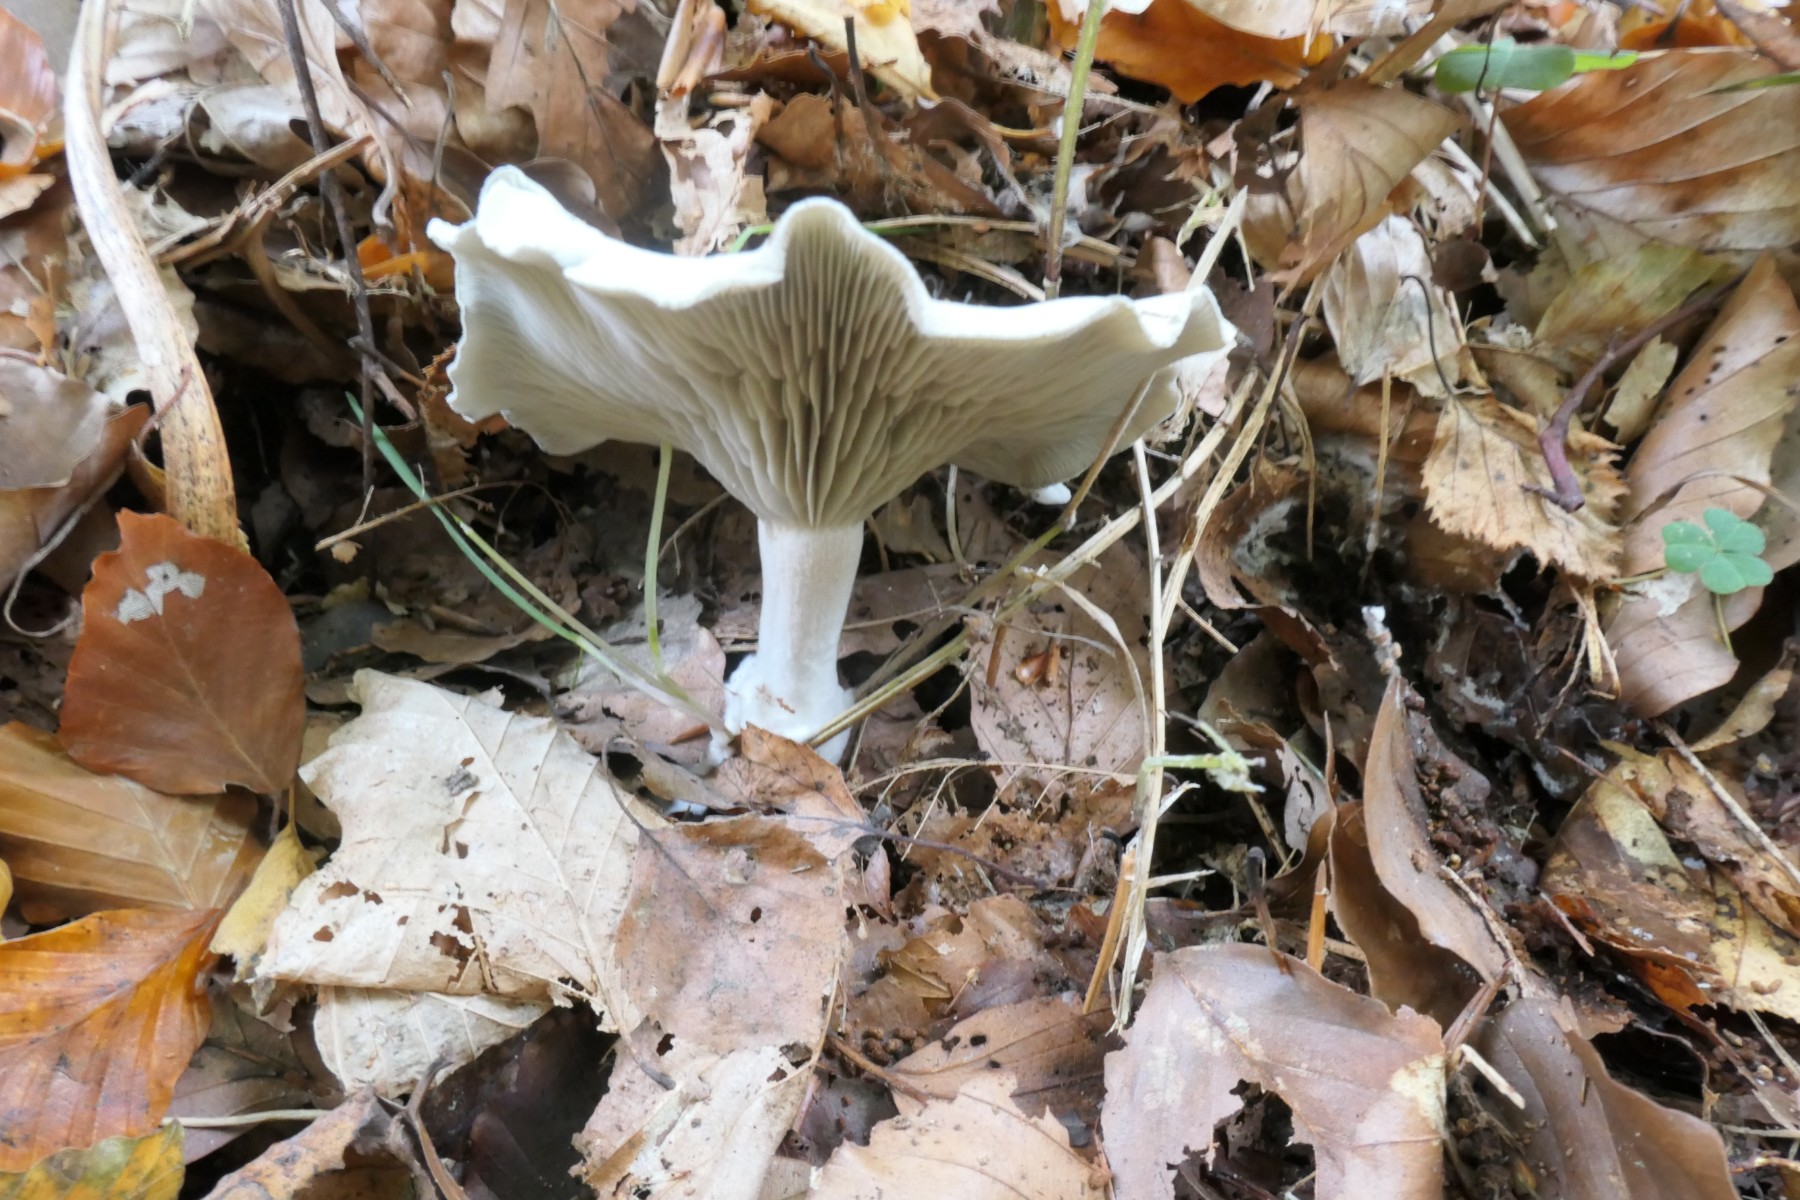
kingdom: Fungi
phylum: Basidiomycota
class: Agaricomycetes
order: Agaricales
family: Tricholomataceae
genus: Clitocybe
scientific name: Clitocybe odora
